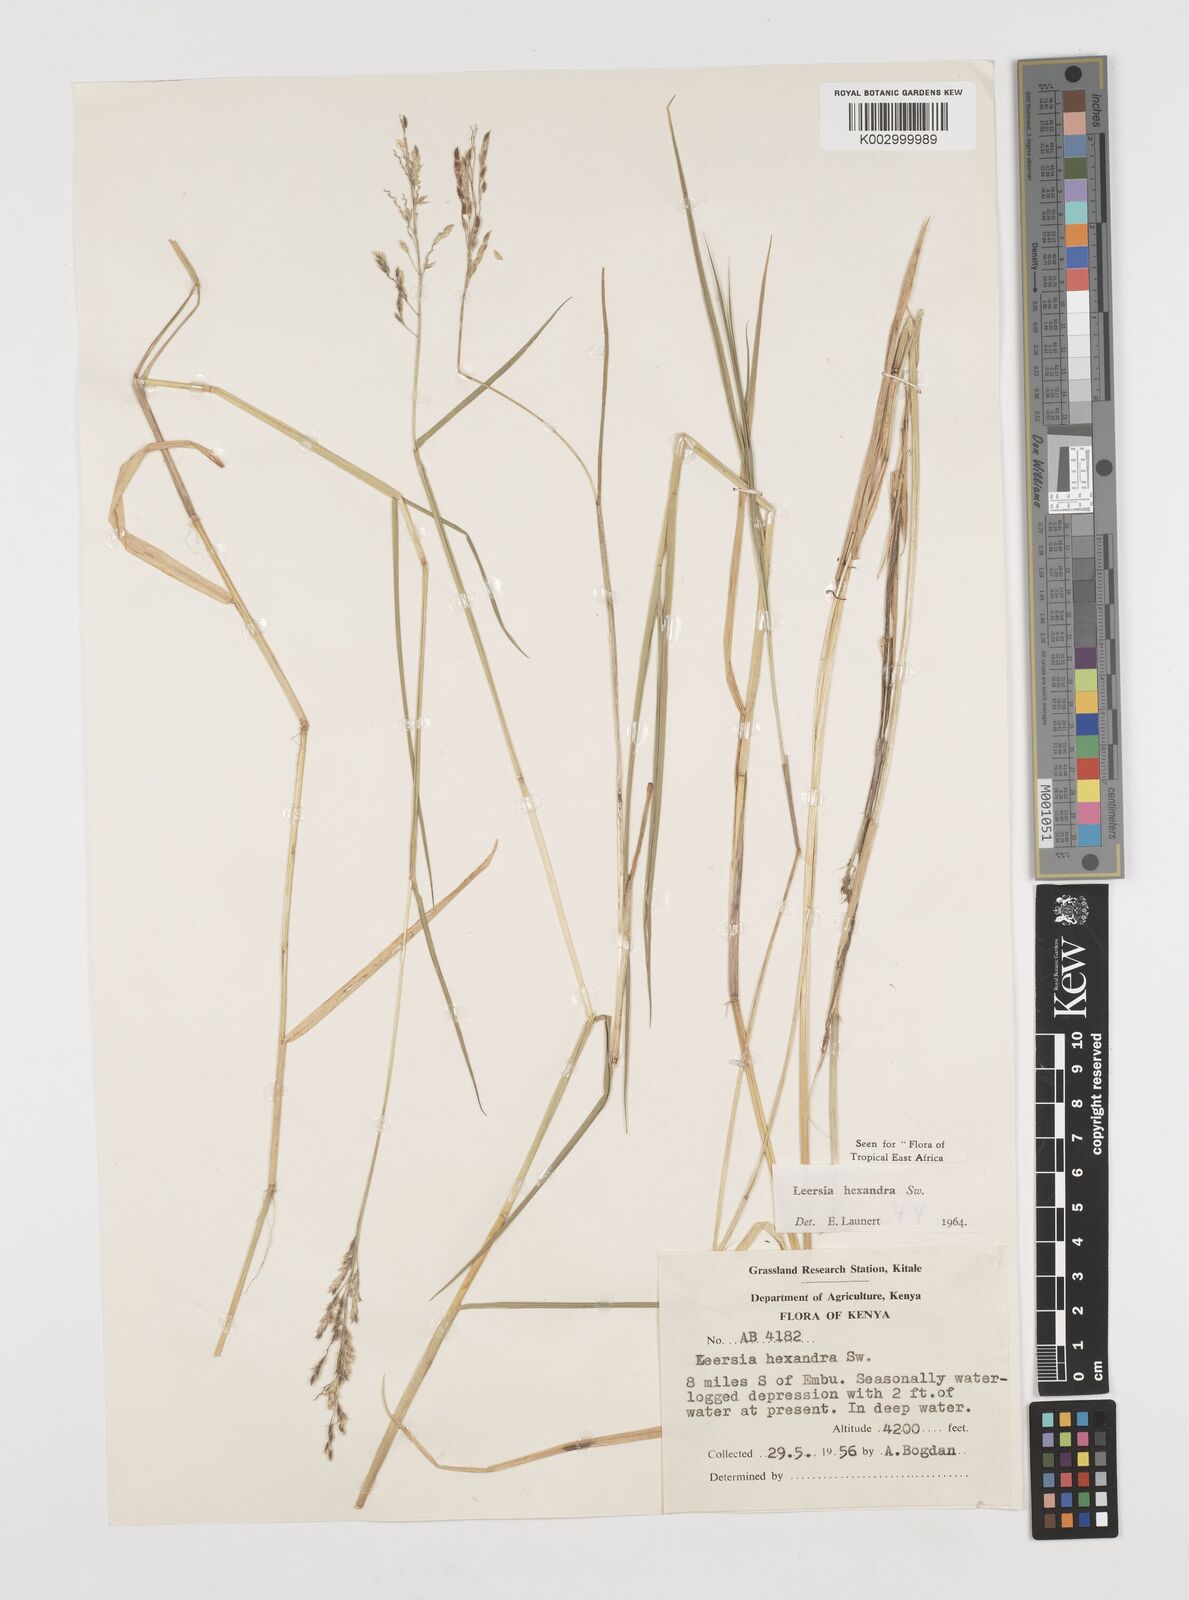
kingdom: Plantae
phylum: Tracheophyta
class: Liliopsida
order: Poales
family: Poaceae
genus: Leersia
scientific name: Leersia hexandra
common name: Southern cut grass
